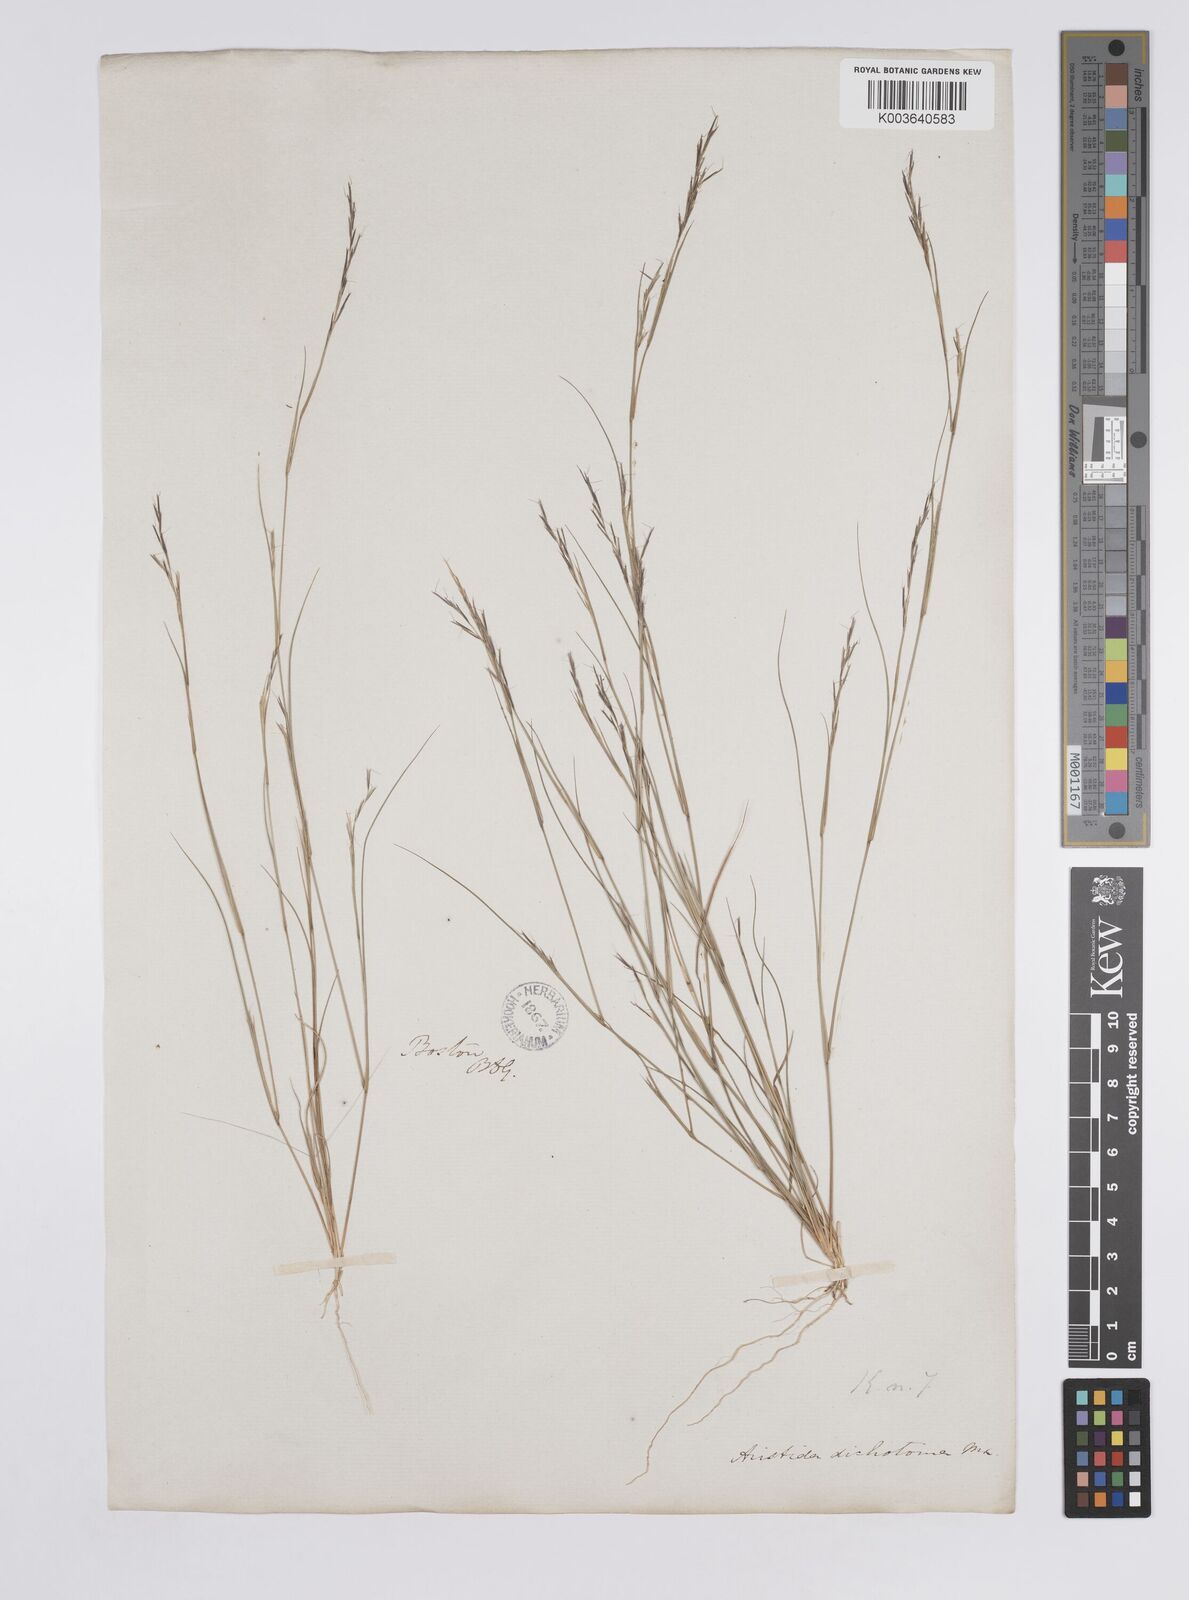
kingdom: Plantae
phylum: Tracheophyta
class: Liliopsida
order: Poales
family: Poaceae
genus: Aristida
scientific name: Aristida dichotoma
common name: Churchmouse three-awn
